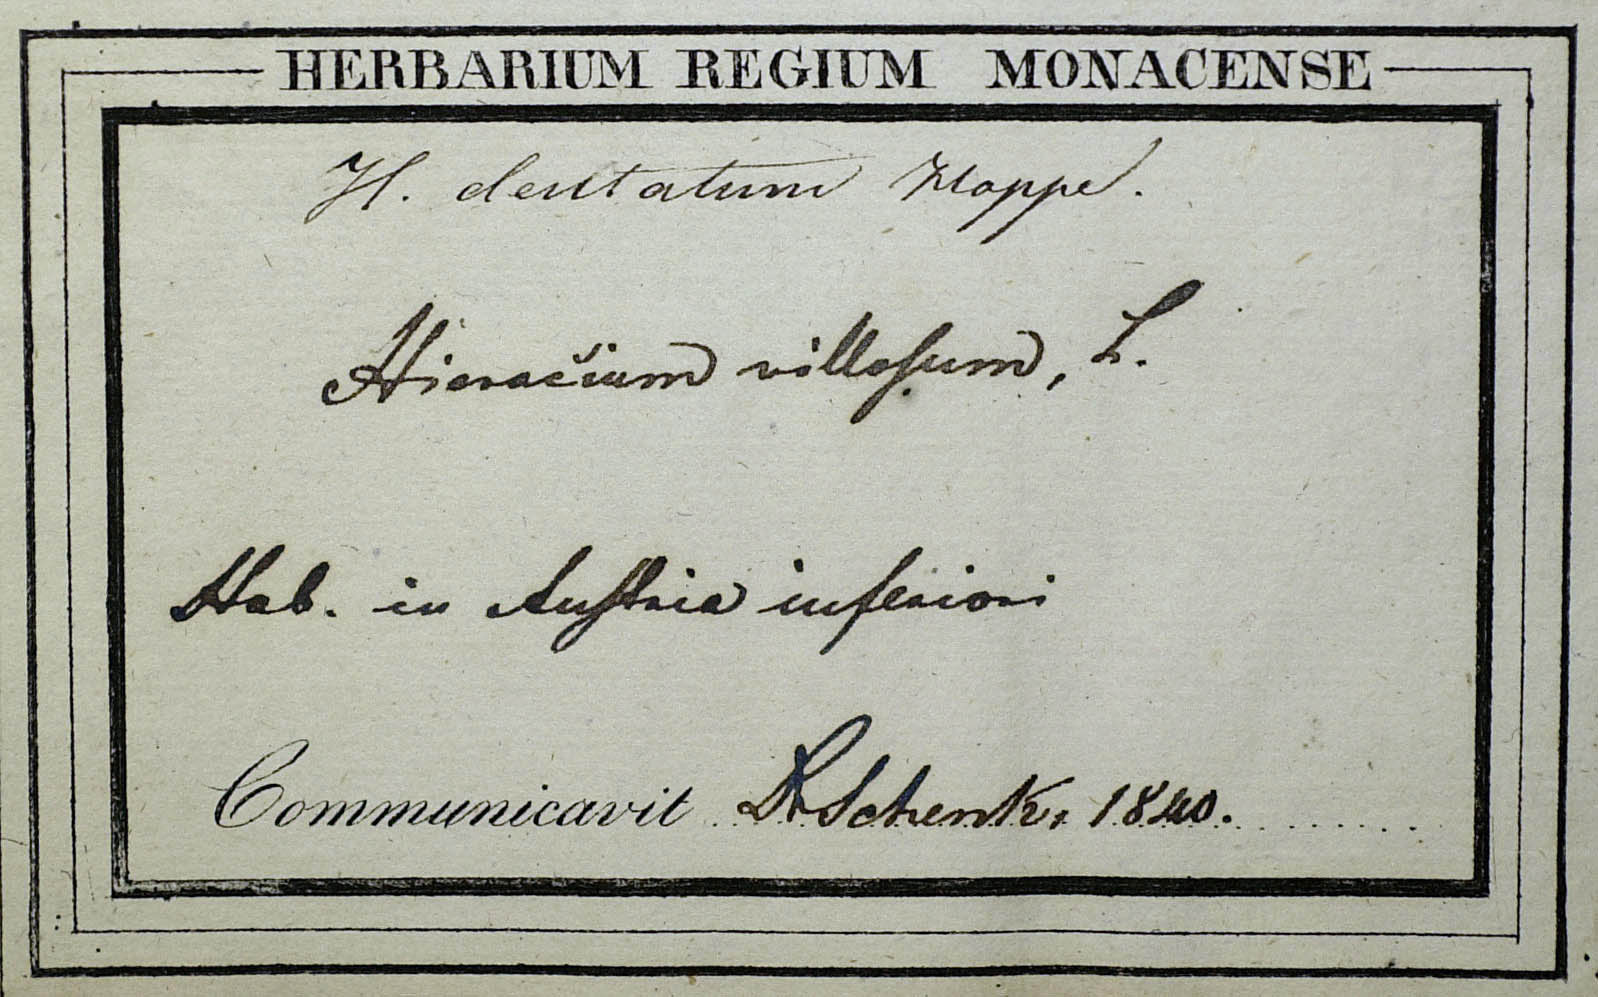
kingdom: Plantae
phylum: Tracheophyta
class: Magnoliopsida
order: Asterales
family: Asteraceae
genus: Hieracium
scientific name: Hieracium glabratum
